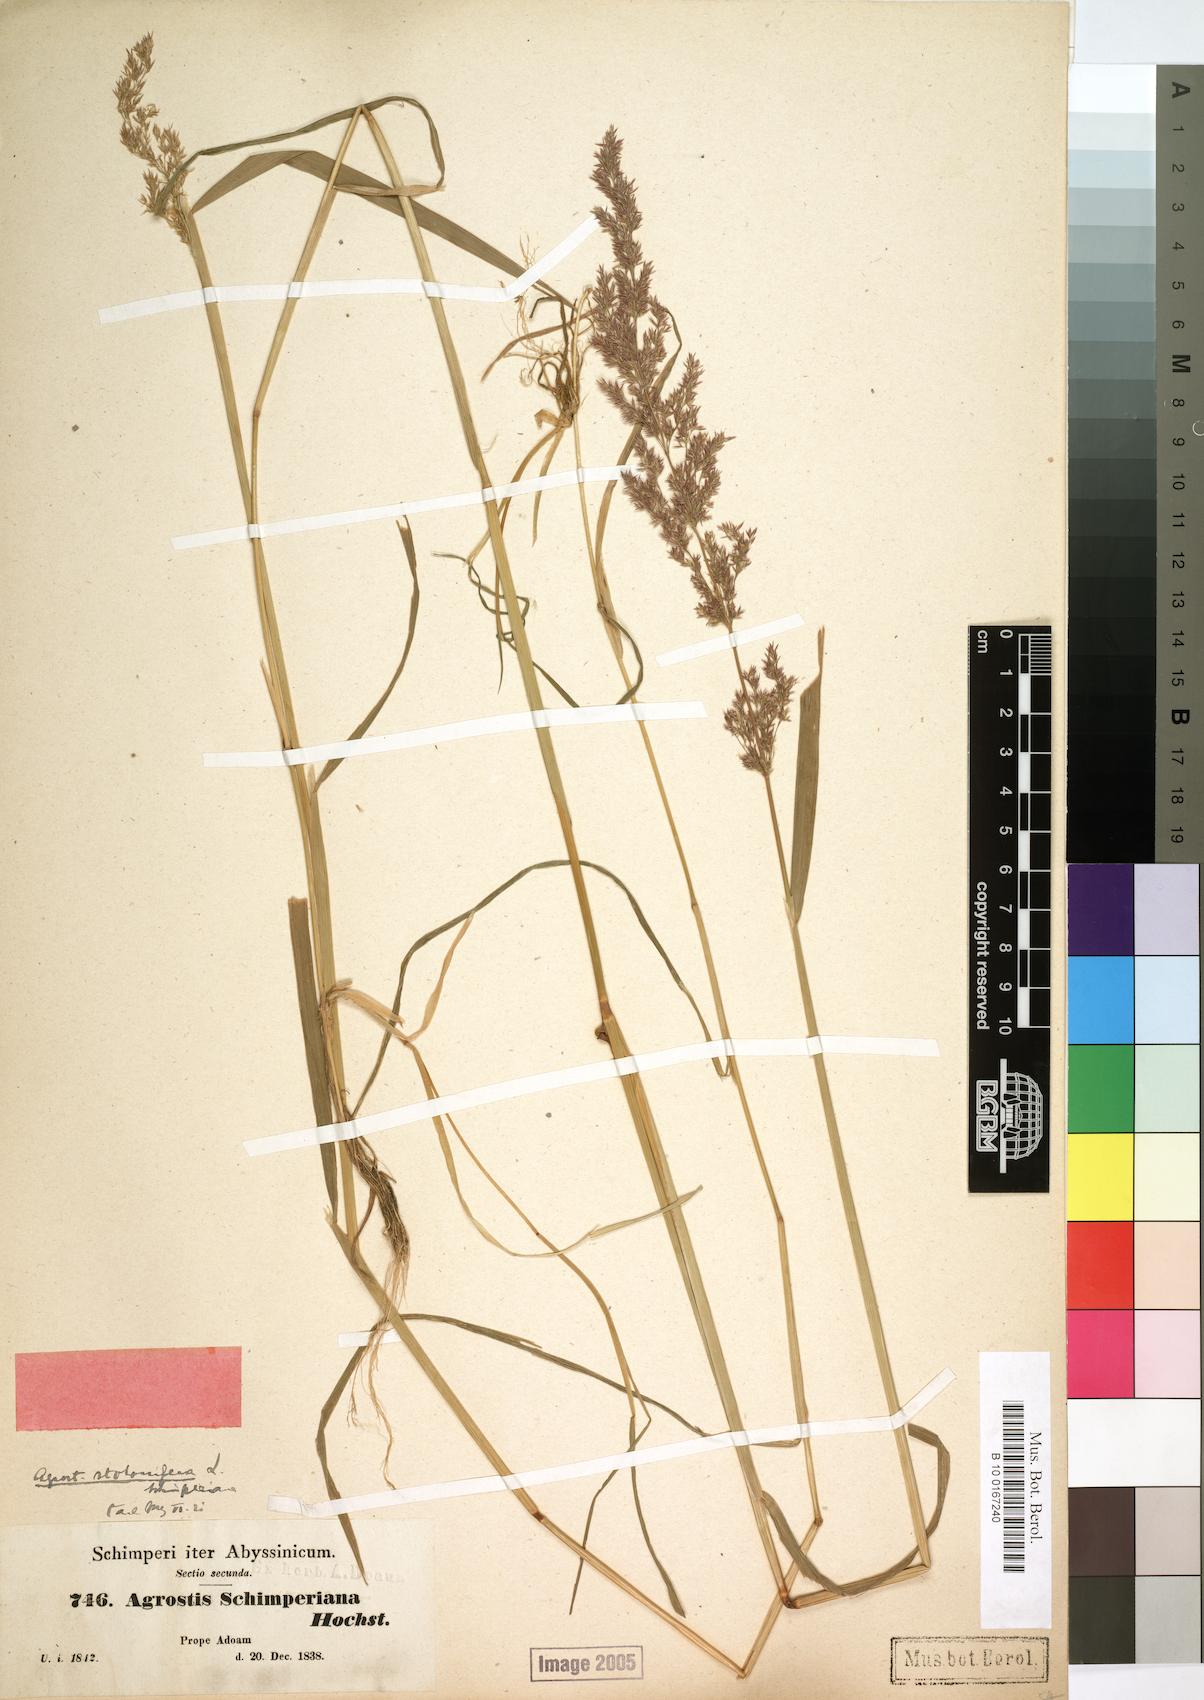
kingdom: Plantae
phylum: Tracheophyta
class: Liliopsida
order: Poales
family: Poaceae
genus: Polypogon
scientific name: Polypogon schimperianus
